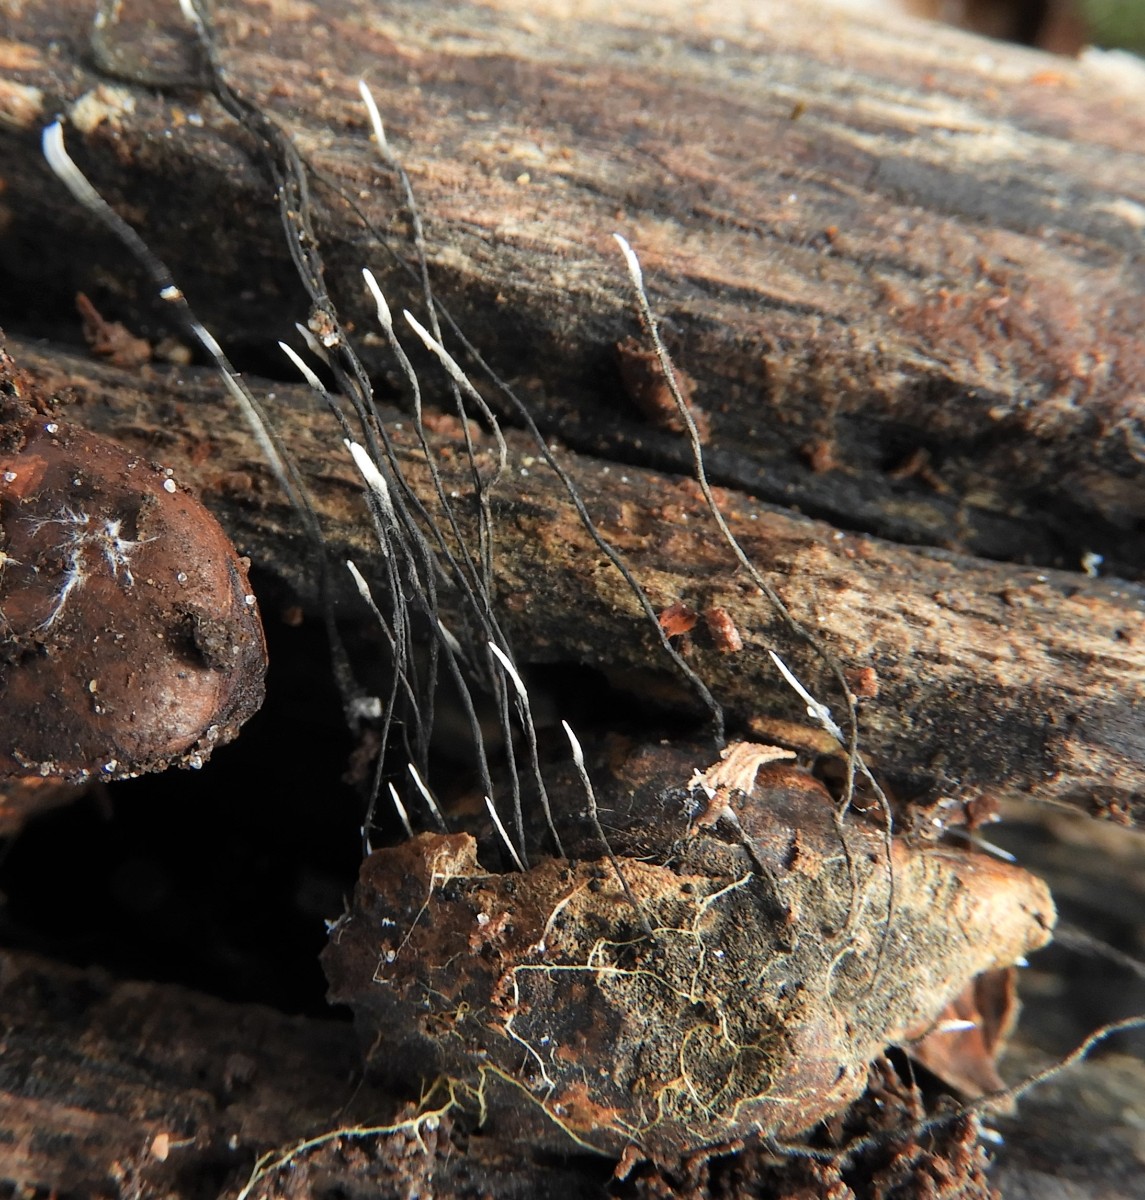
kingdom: Fungi
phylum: Ascomycota
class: Sordariomycetes
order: Xylariales
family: Xylariaceae
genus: Xylaria
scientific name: Xylaria carpophila
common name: bogskål-stødsvamp
